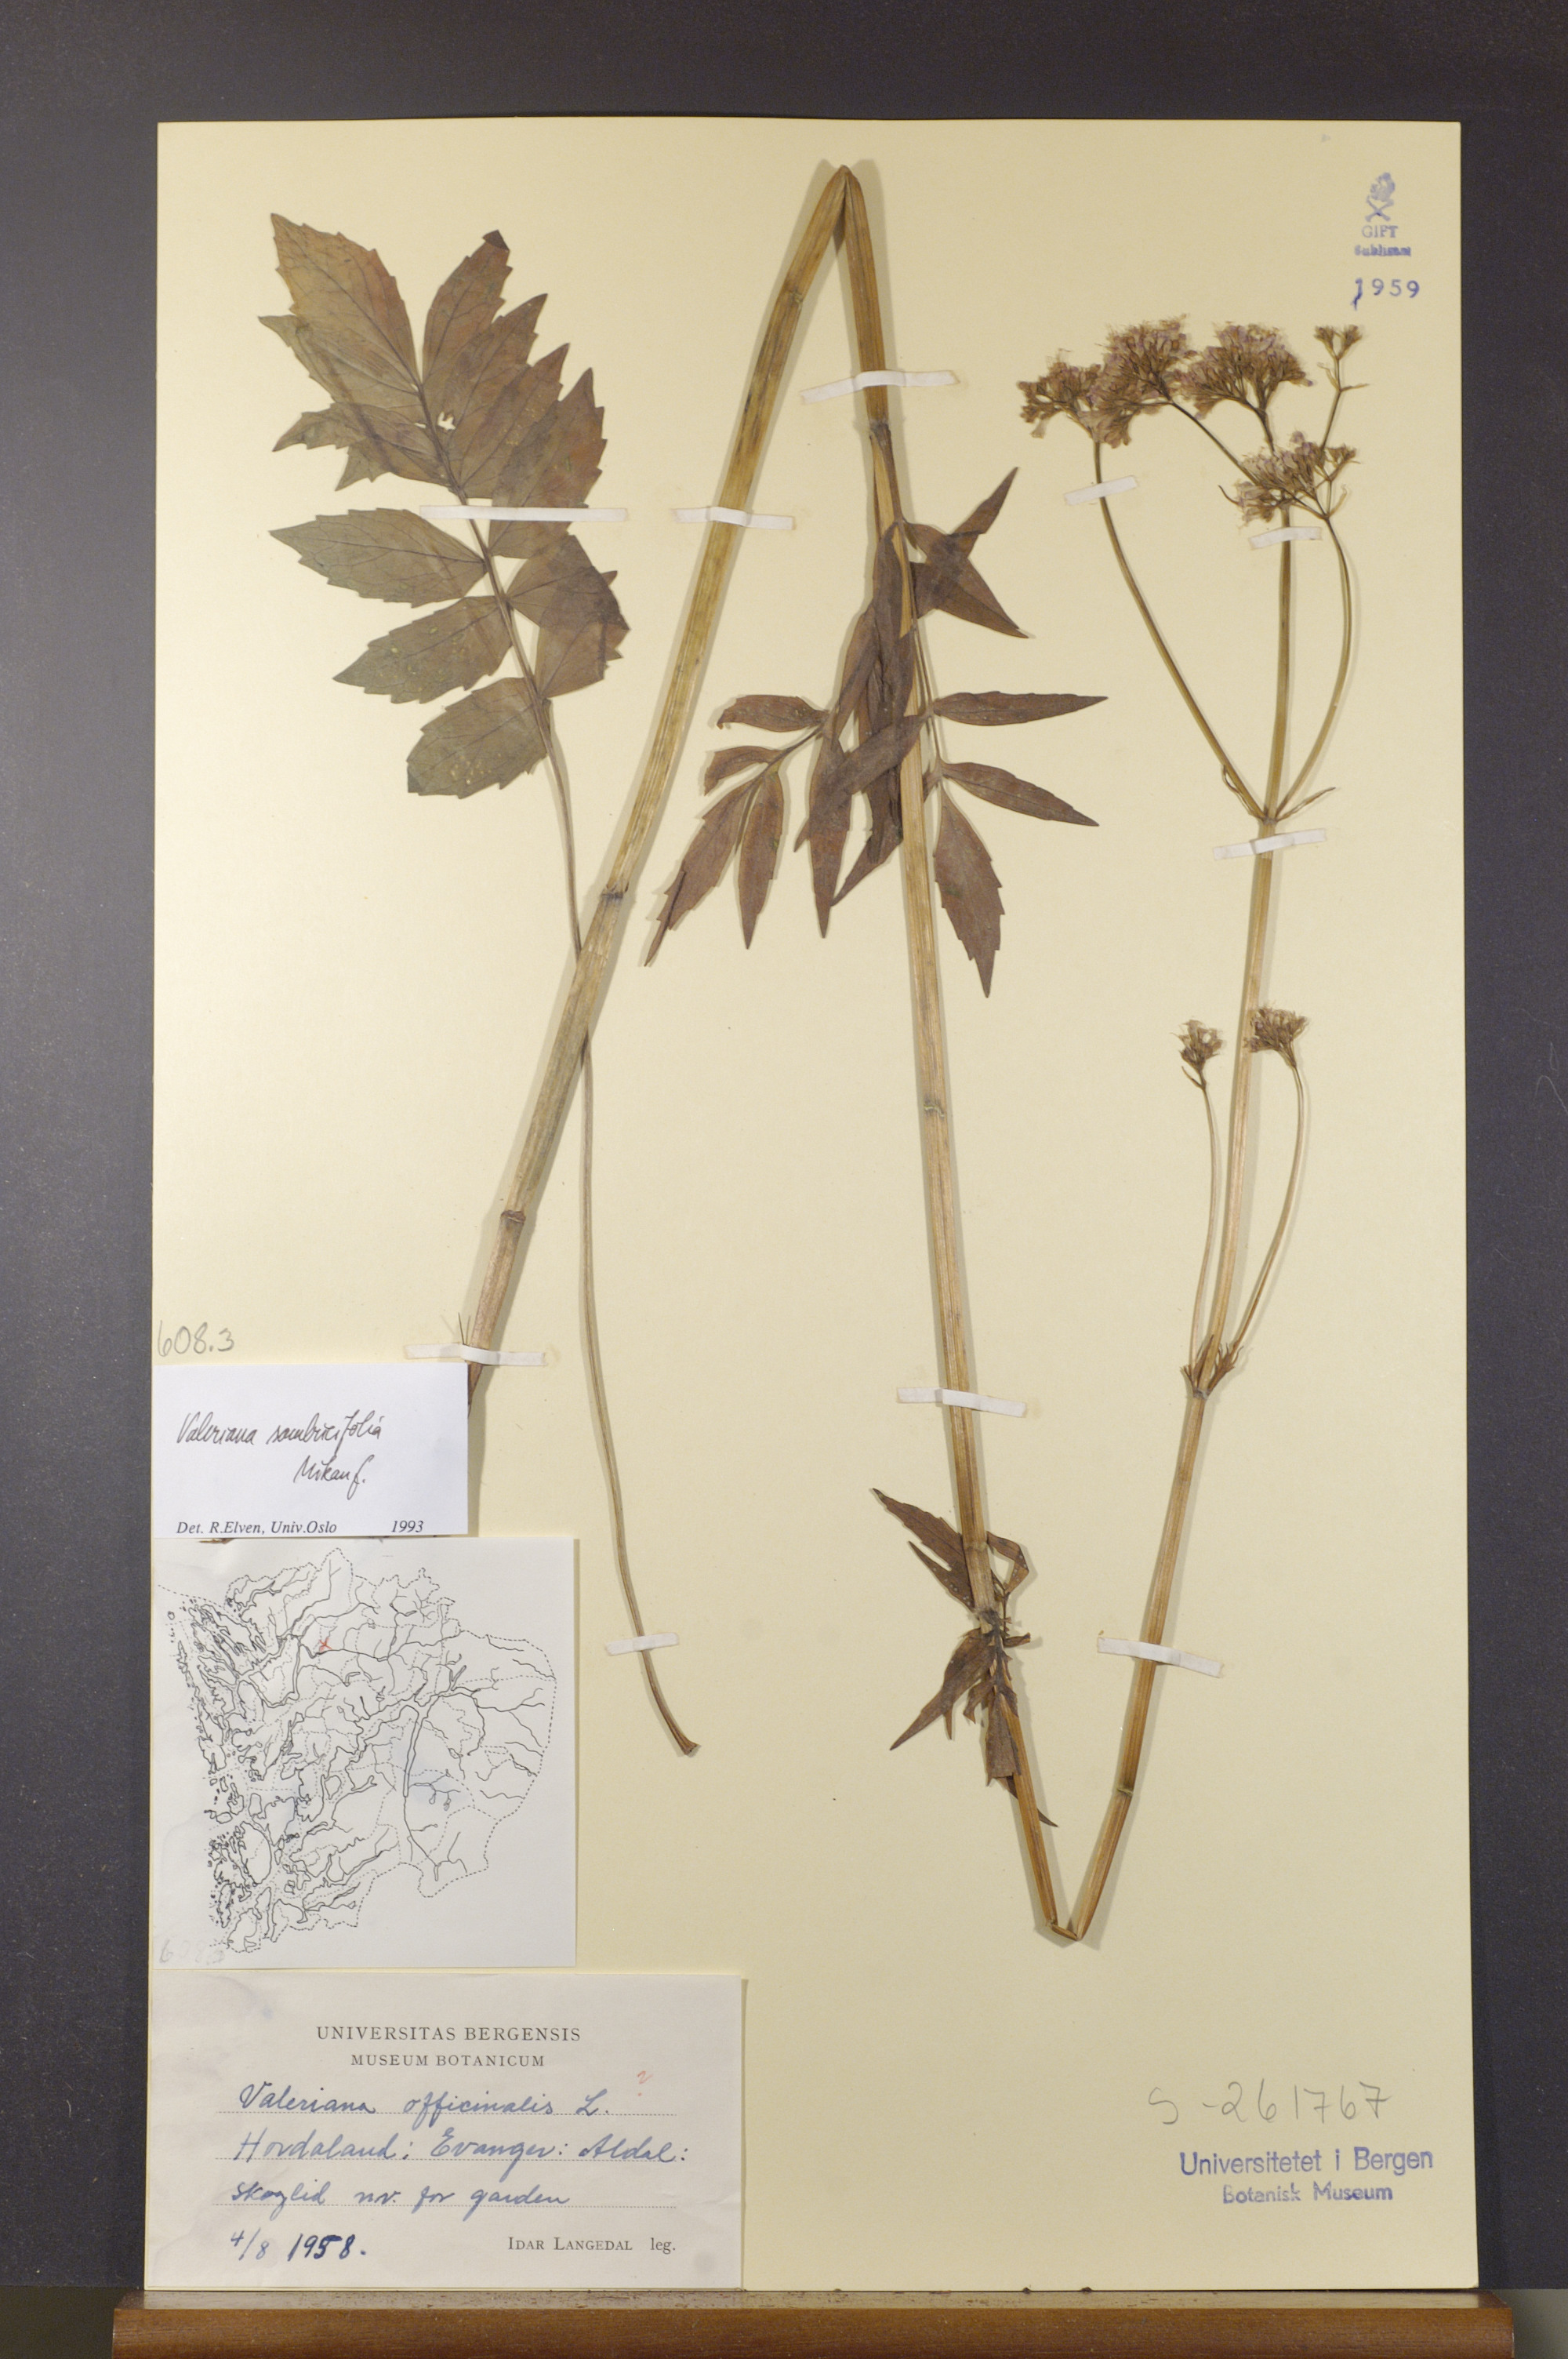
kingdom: Plantae
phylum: Tracheophyta
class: Magnoliopsida
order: Dipsacales
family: Caprifoliaceae
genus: Valeriana
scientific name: Valeriana excelsa
